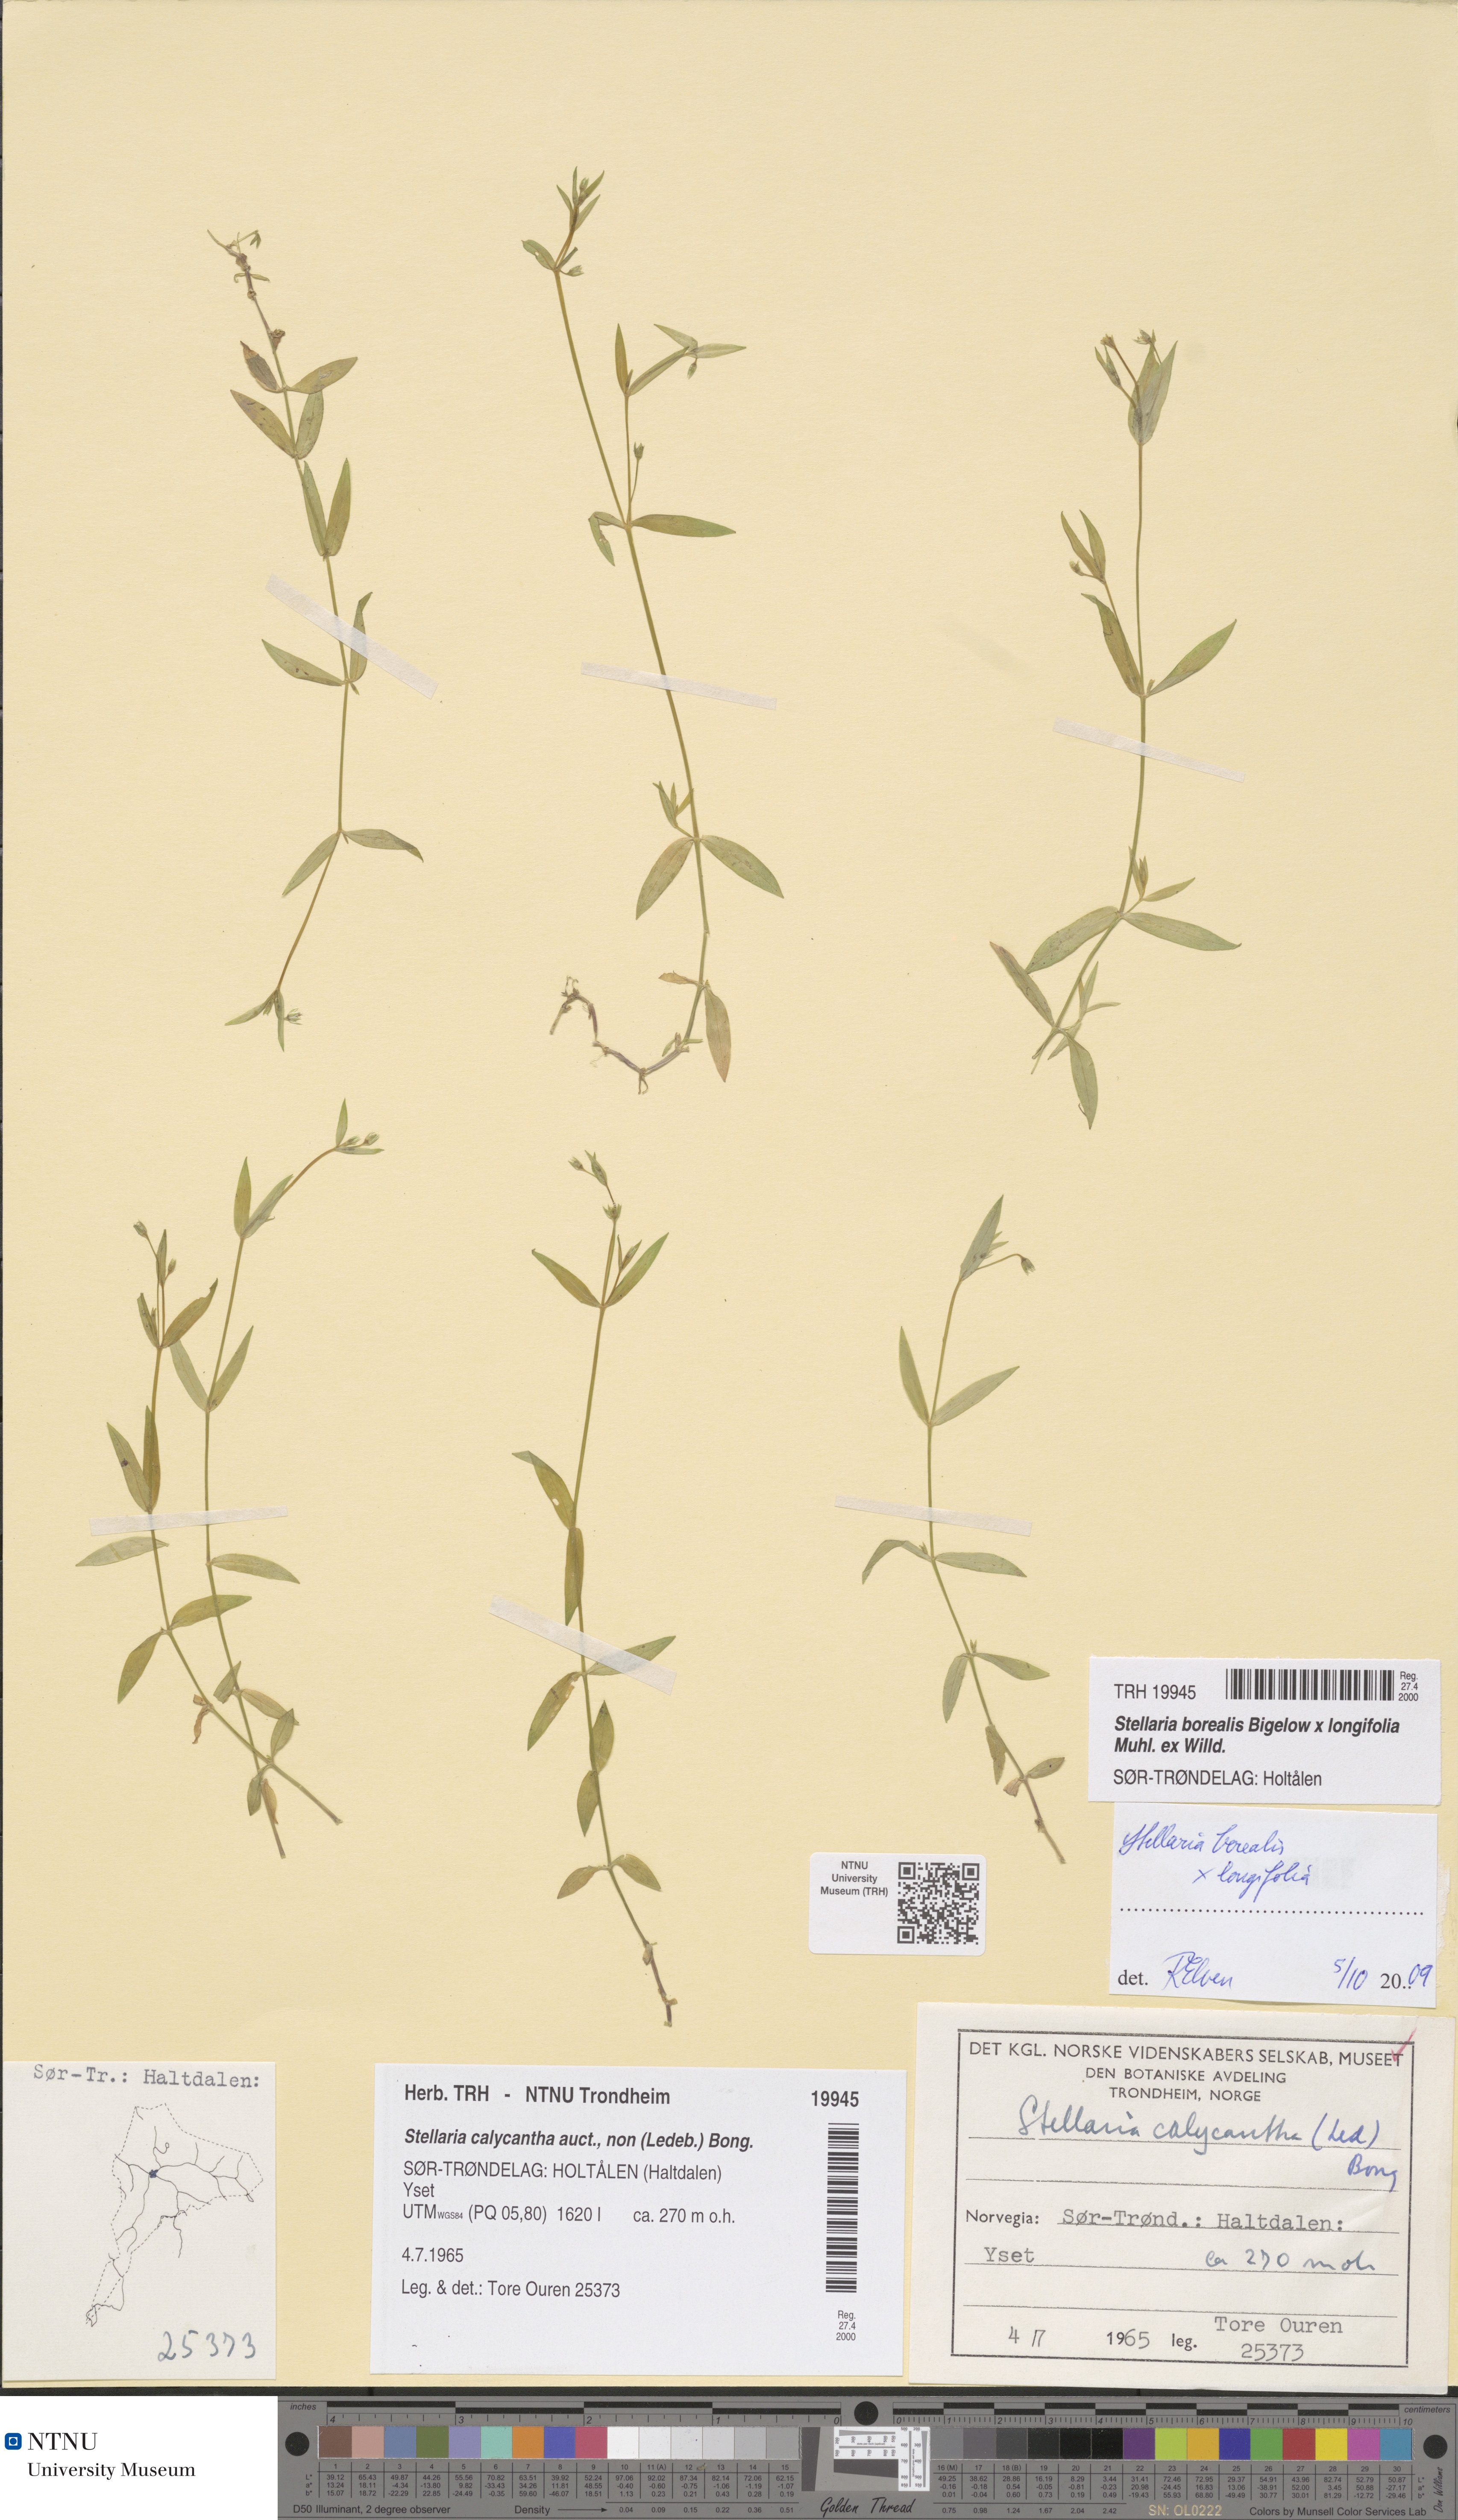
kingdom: Plantae
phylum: Tracheophyta
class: Magnoliopsida
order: Caryophyllales
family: Caryophyllaceae
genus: Stellaria
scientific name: Stellaria alpestris
